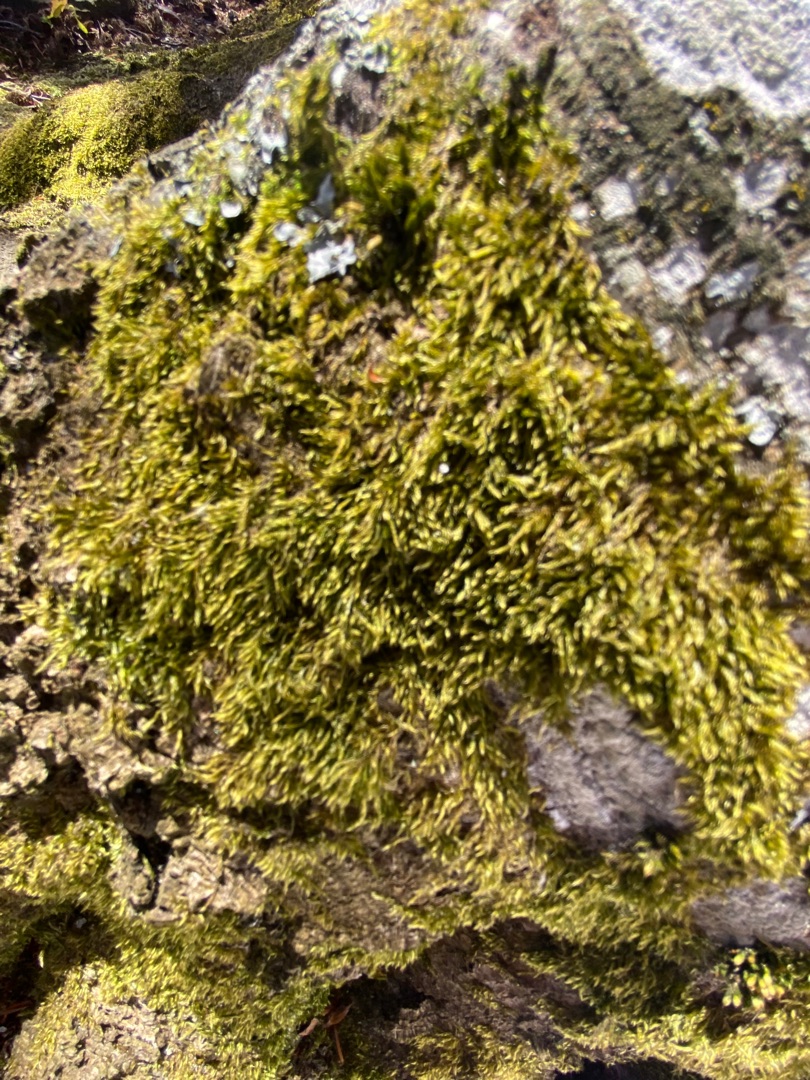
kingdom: Plantae
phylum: Bryophyta
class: Bryopsida
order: Hypnales
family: Hypnaceae
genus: Hypnum
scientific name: Hypnum
